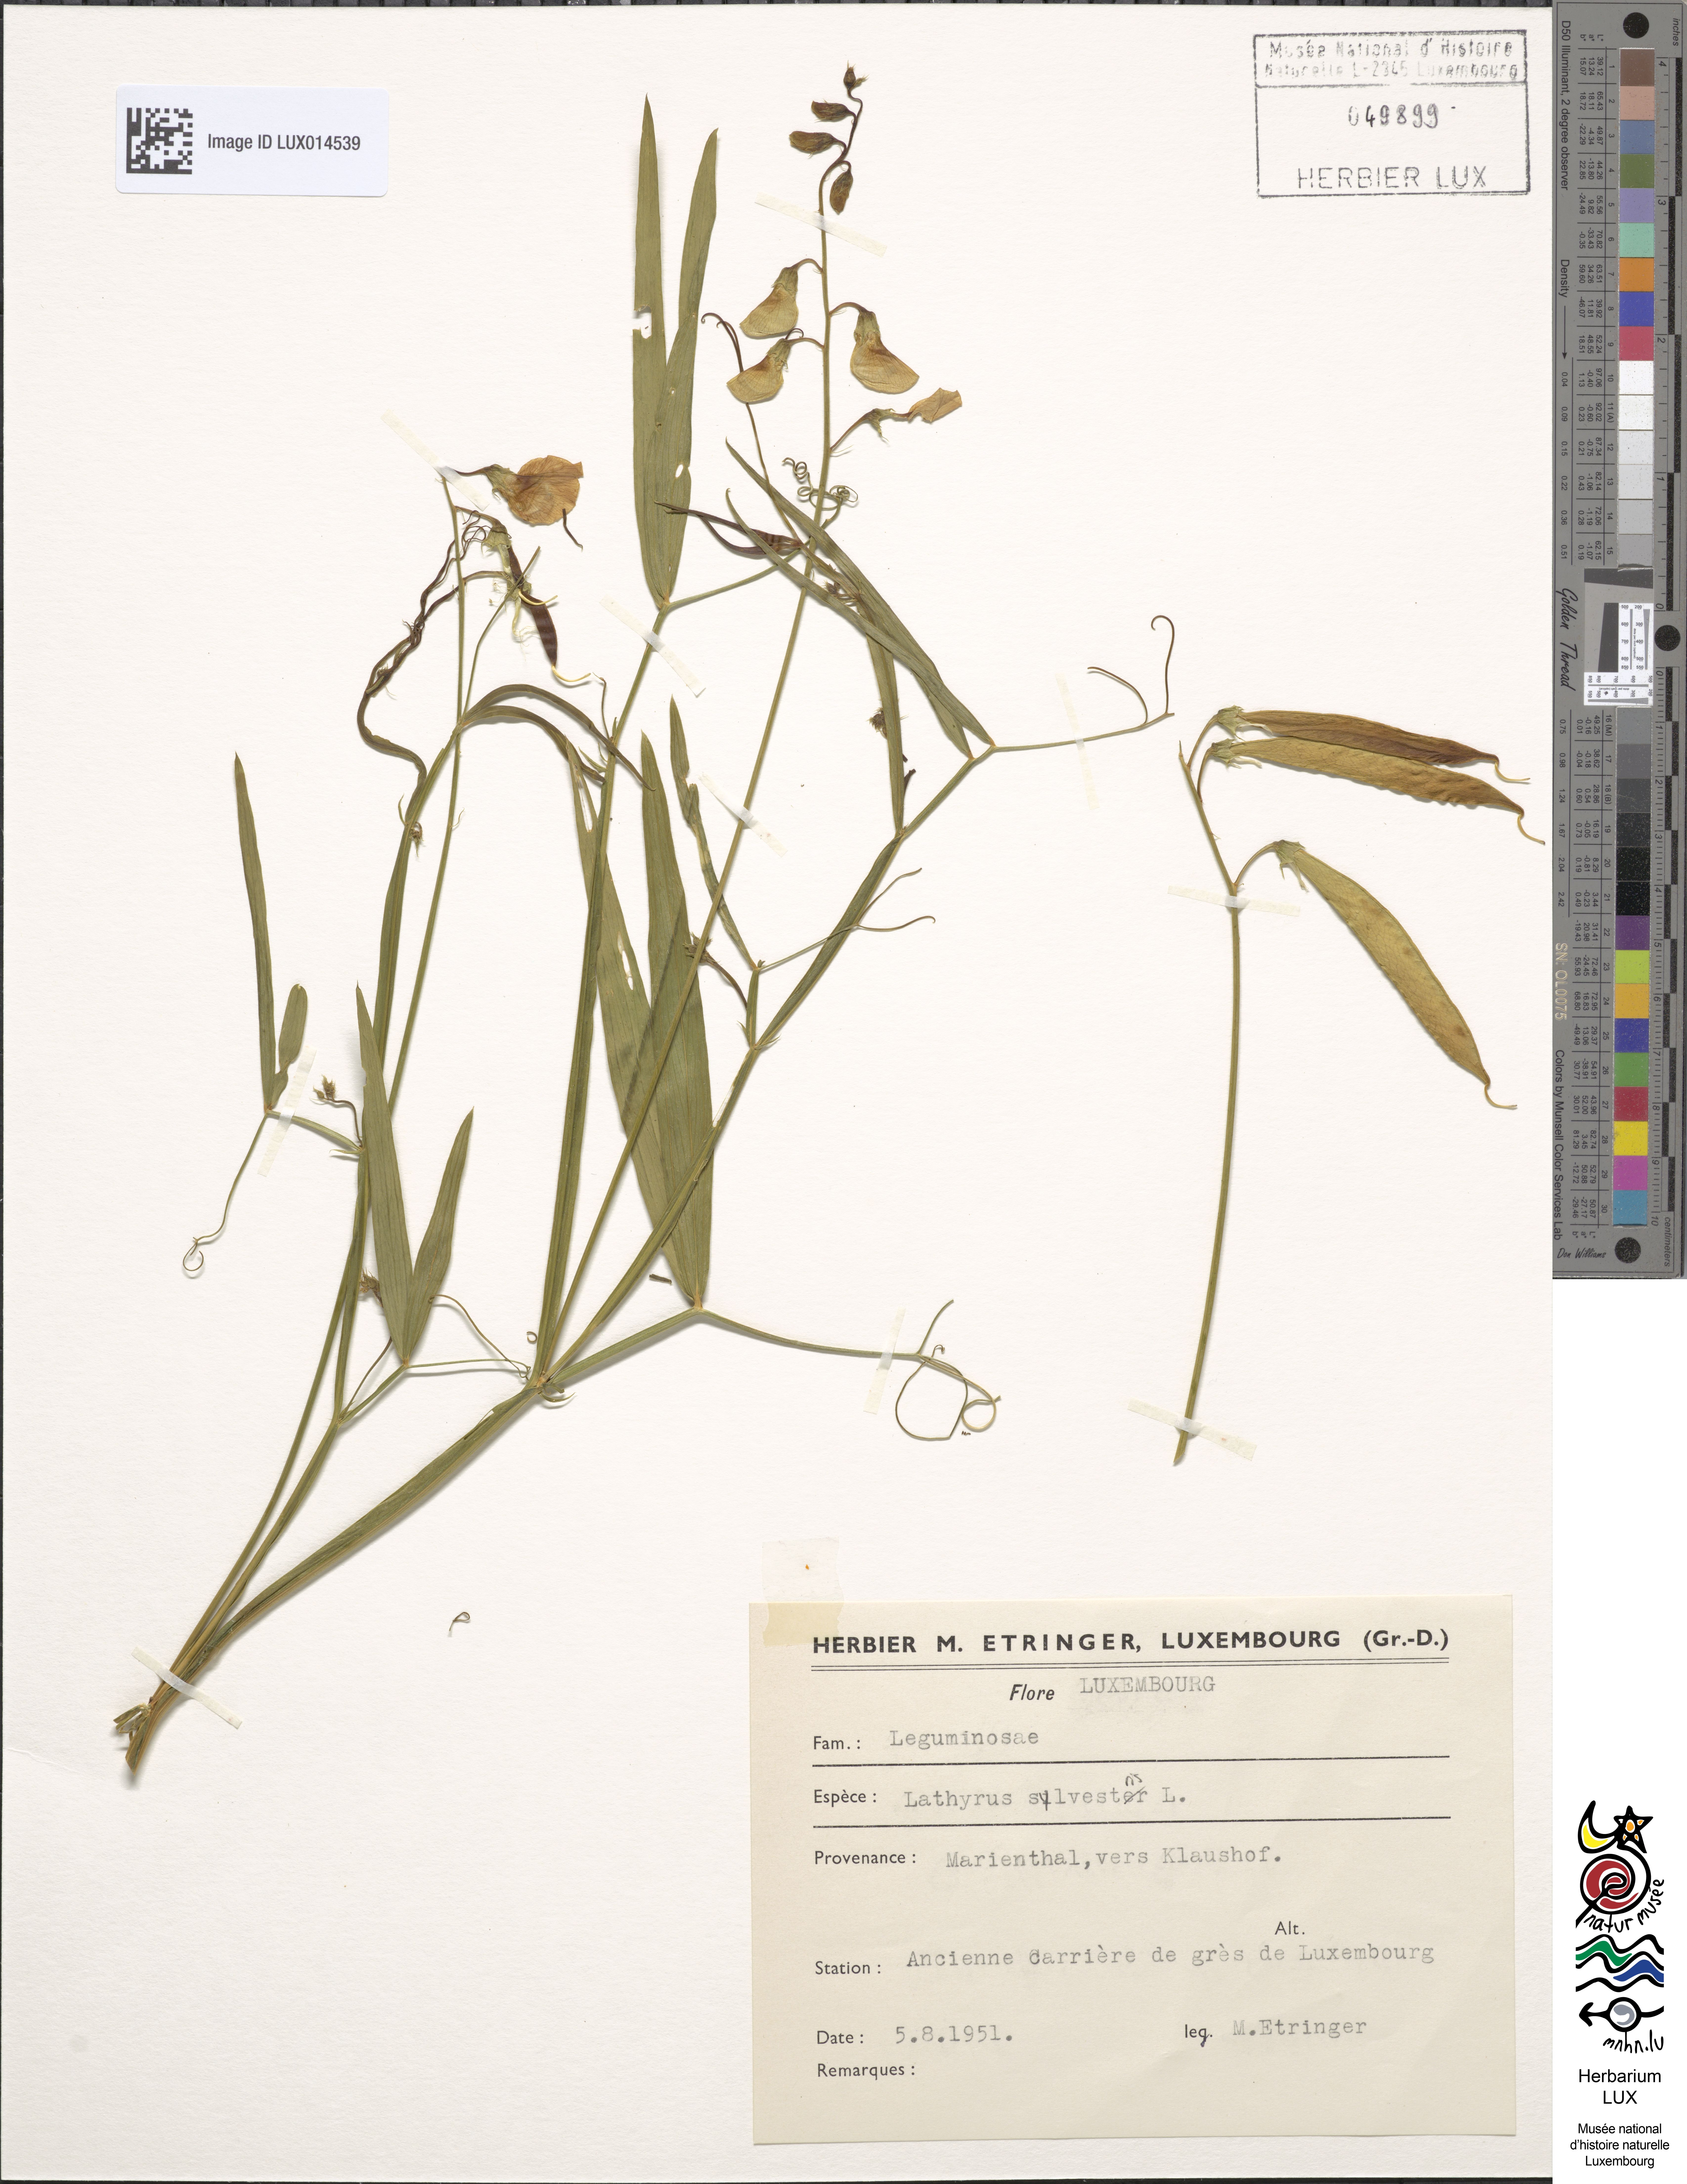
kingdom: Plantae
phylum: Tracheophyta
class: Magnoliopsida
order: Fabales
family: Fabaceae
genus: Lathyrus
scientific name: Lathyrus sylvestris
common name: Flat pea
